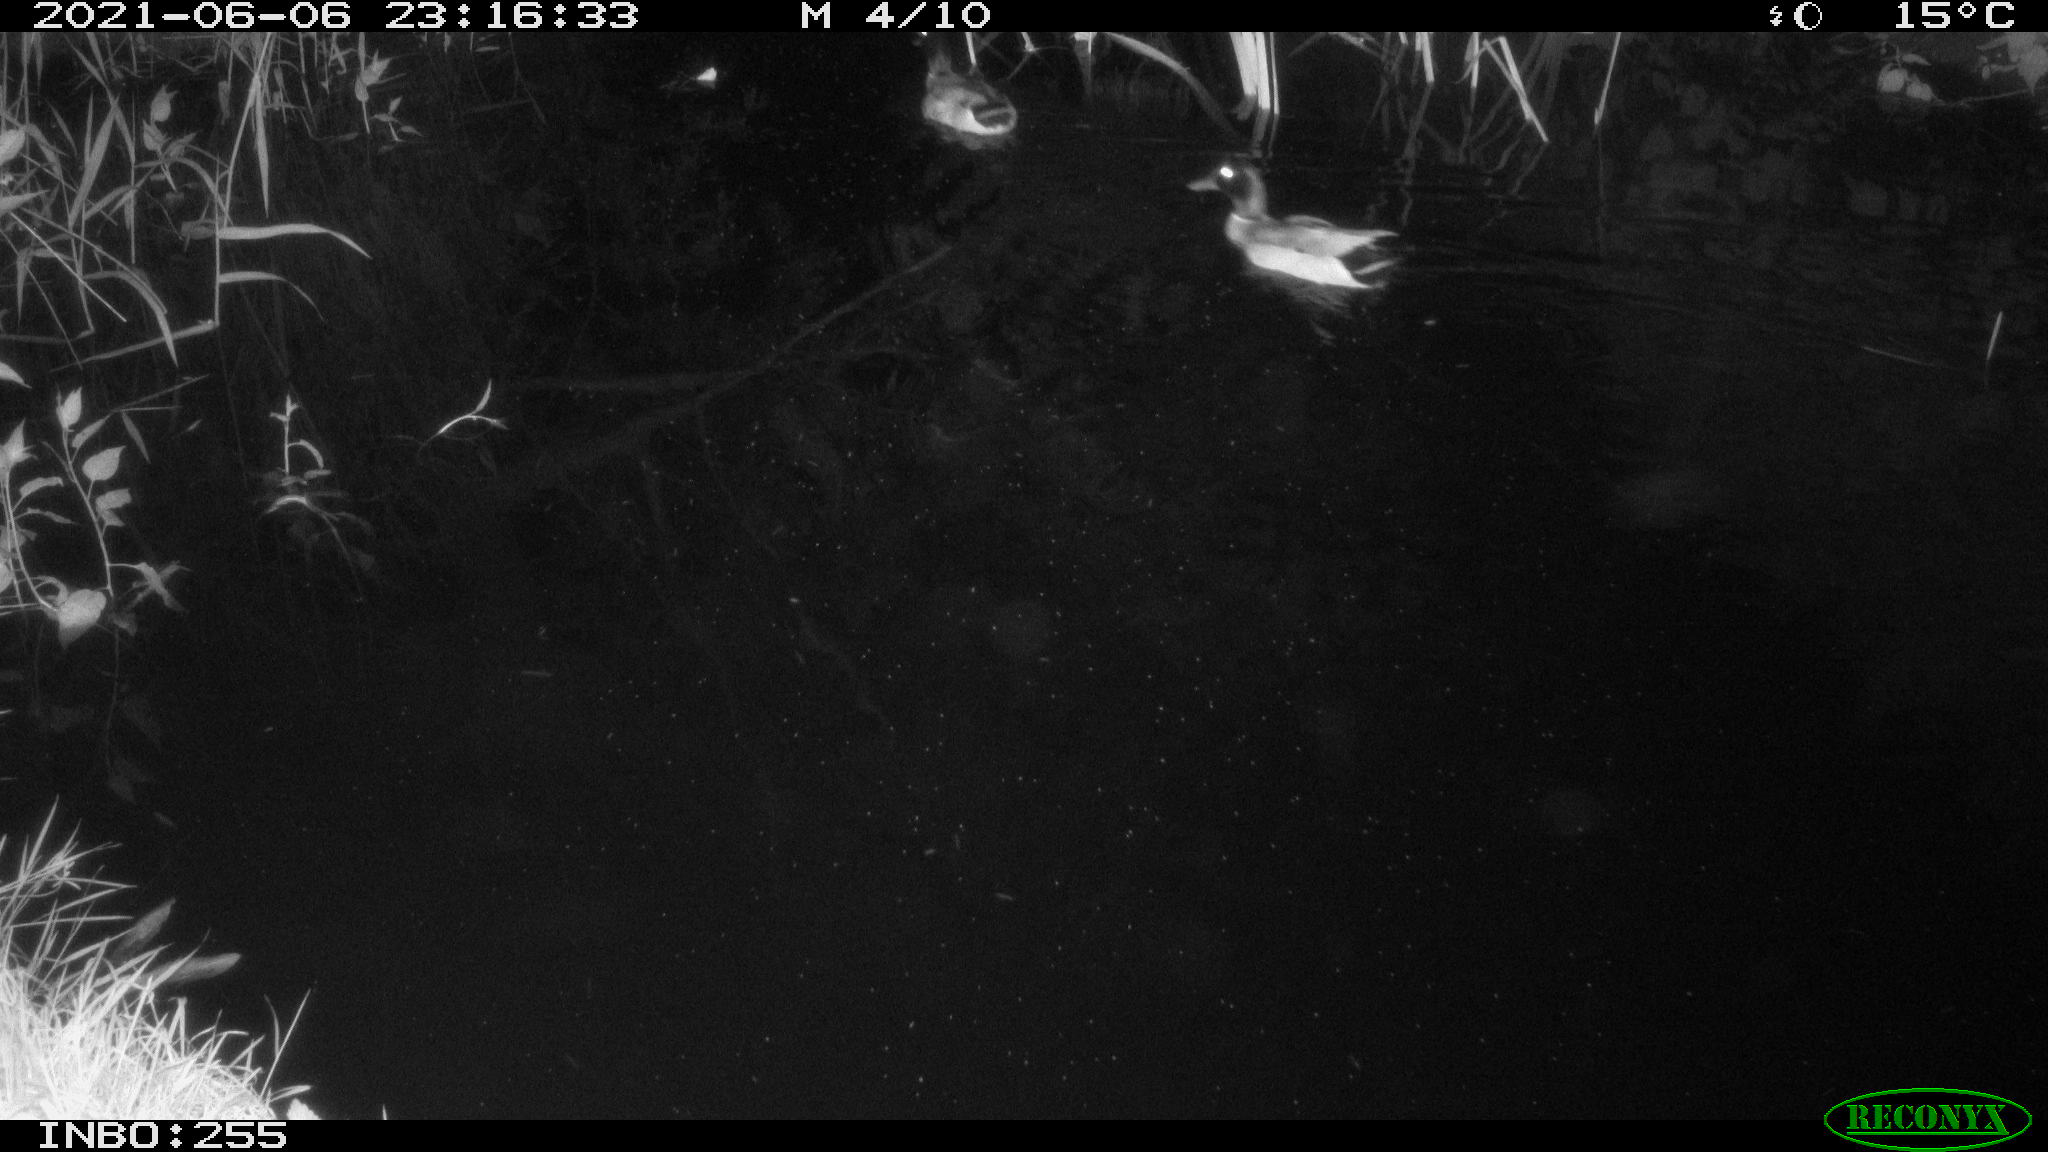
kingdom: Animalia
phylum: Chordata
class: Aves
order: Anseriformes
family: Anatidae
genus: Anas
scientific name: Anas
